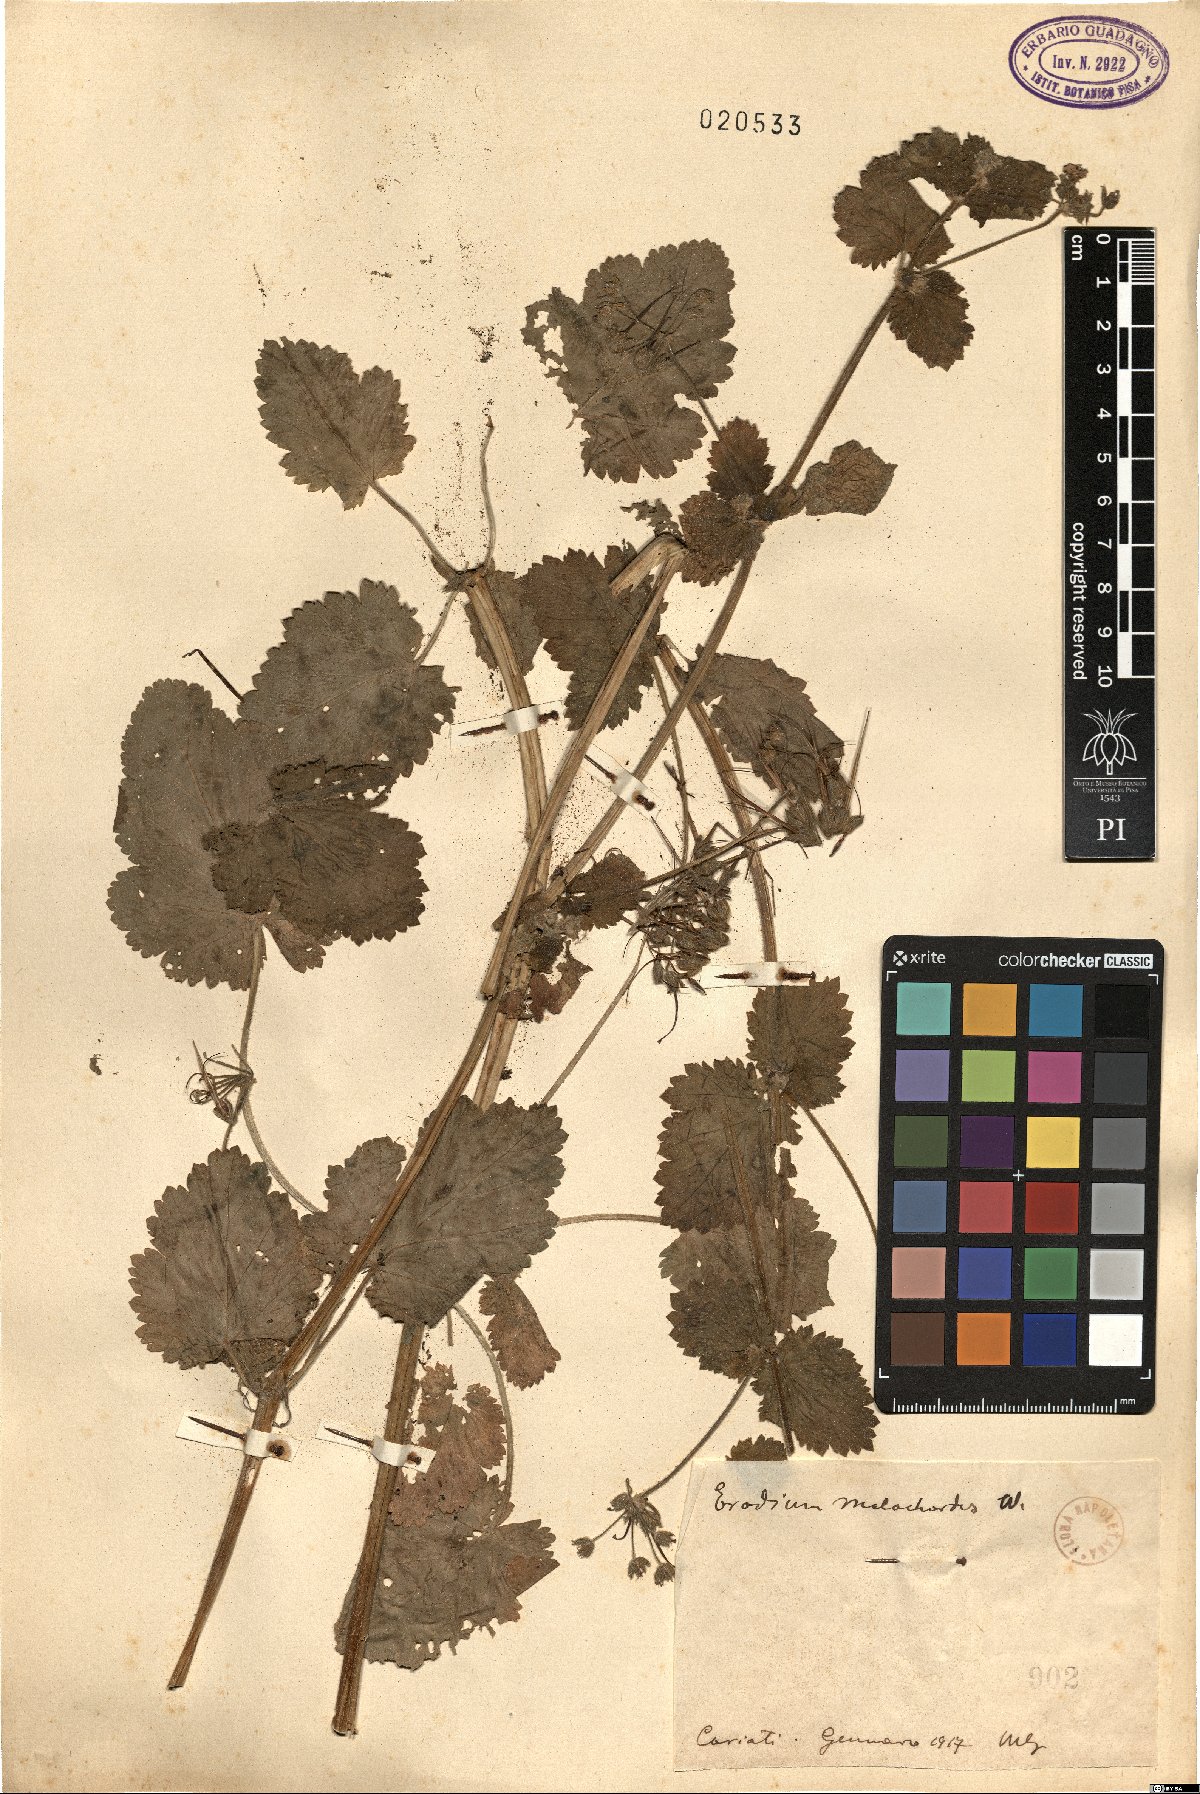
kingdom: Plantae
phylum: Tracheophyta
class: Magnoliopsida
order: Geraniales
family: Geraniaceae
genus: Erodium
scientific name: Erodium malacoides
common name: Soft stork's-bill
